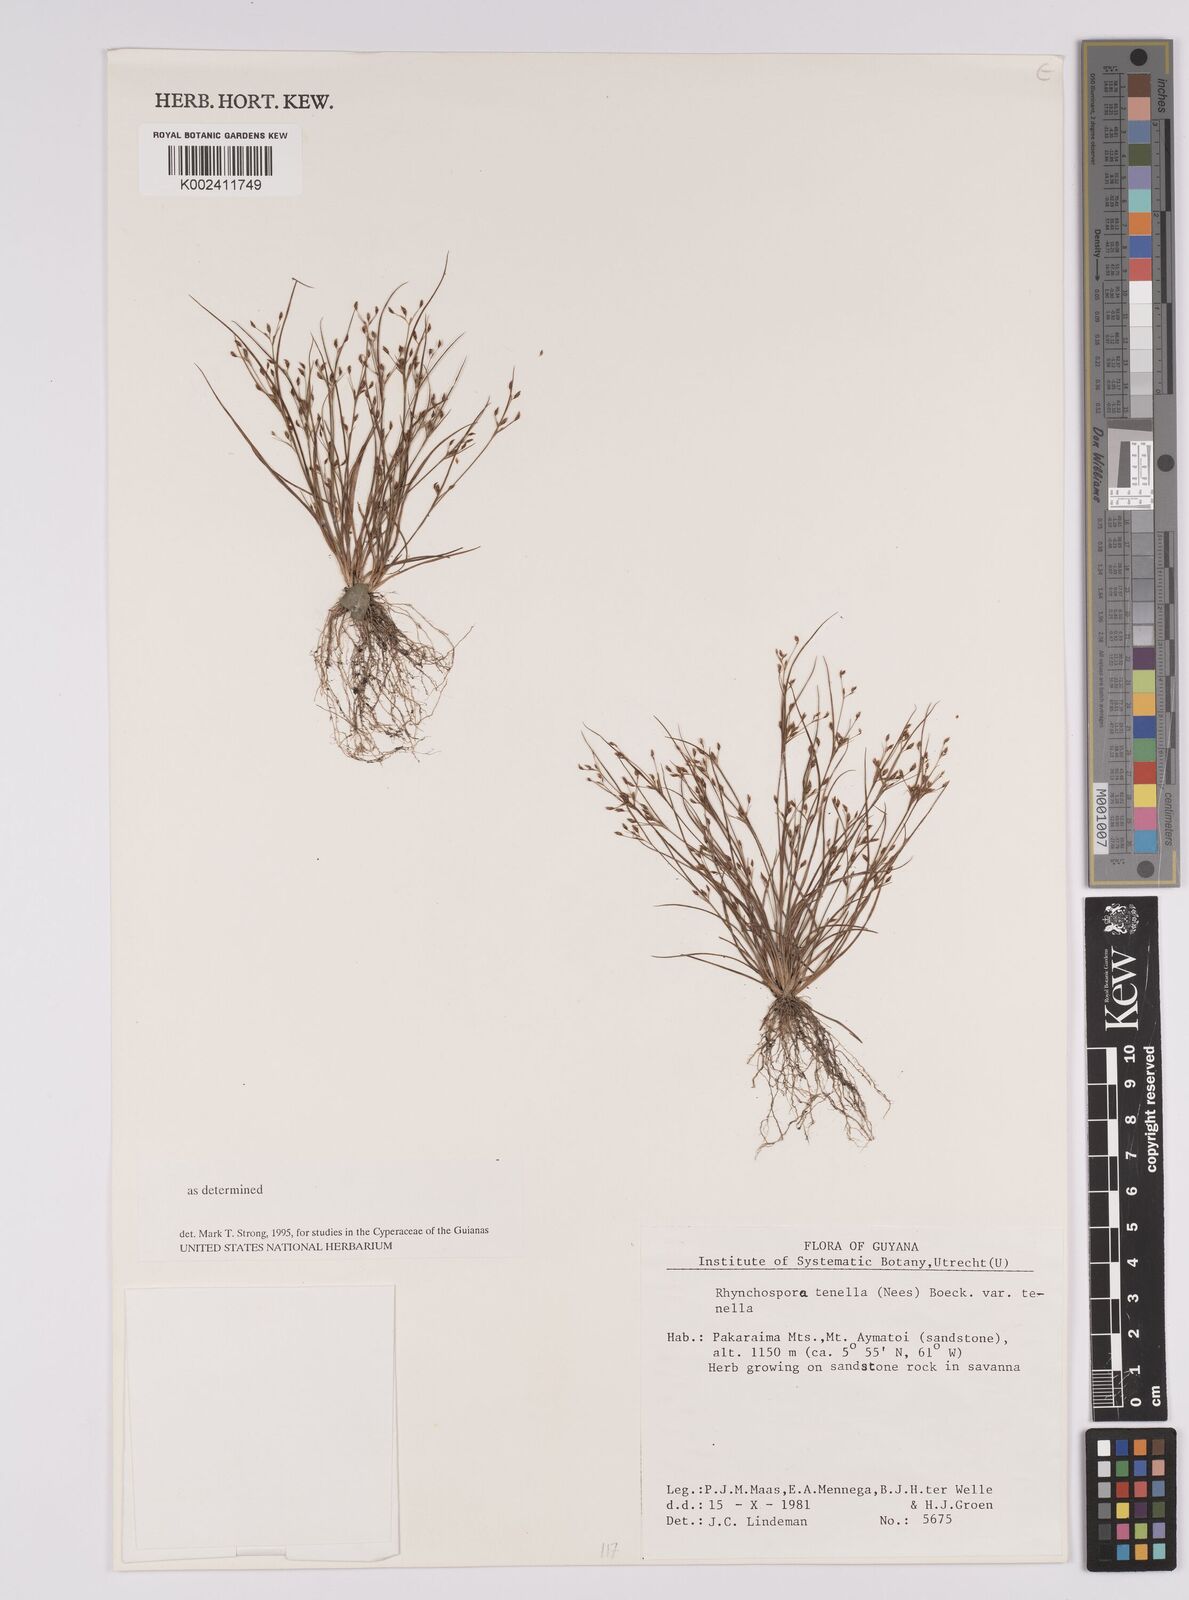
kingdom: Plantae
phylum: Tracheophyta
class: Liliopsida
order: Poales
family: Cyperaceae
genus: Rhynchospora
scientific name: Rhynchospora tenella
